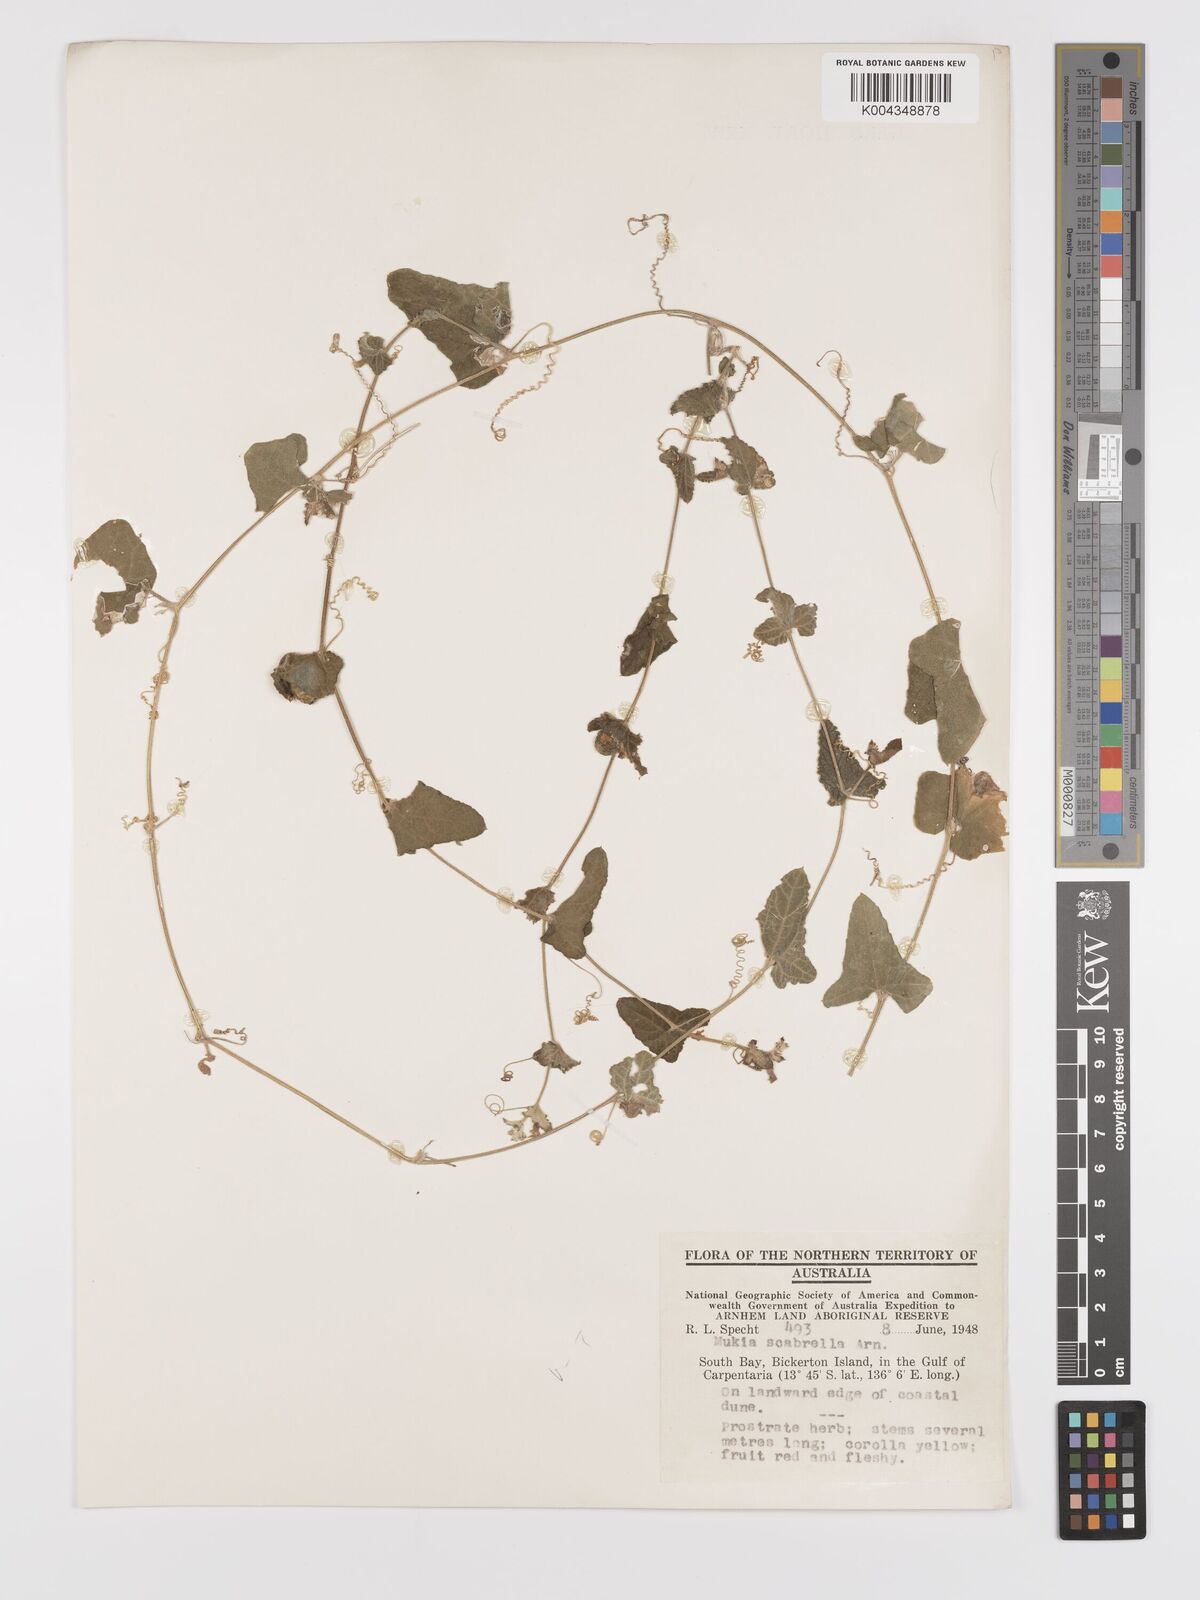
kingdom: Animalia
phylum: Arthropoda
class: Insecta
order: Lepidoptera
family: Crambidae
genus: Mukia
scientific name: Mukia
